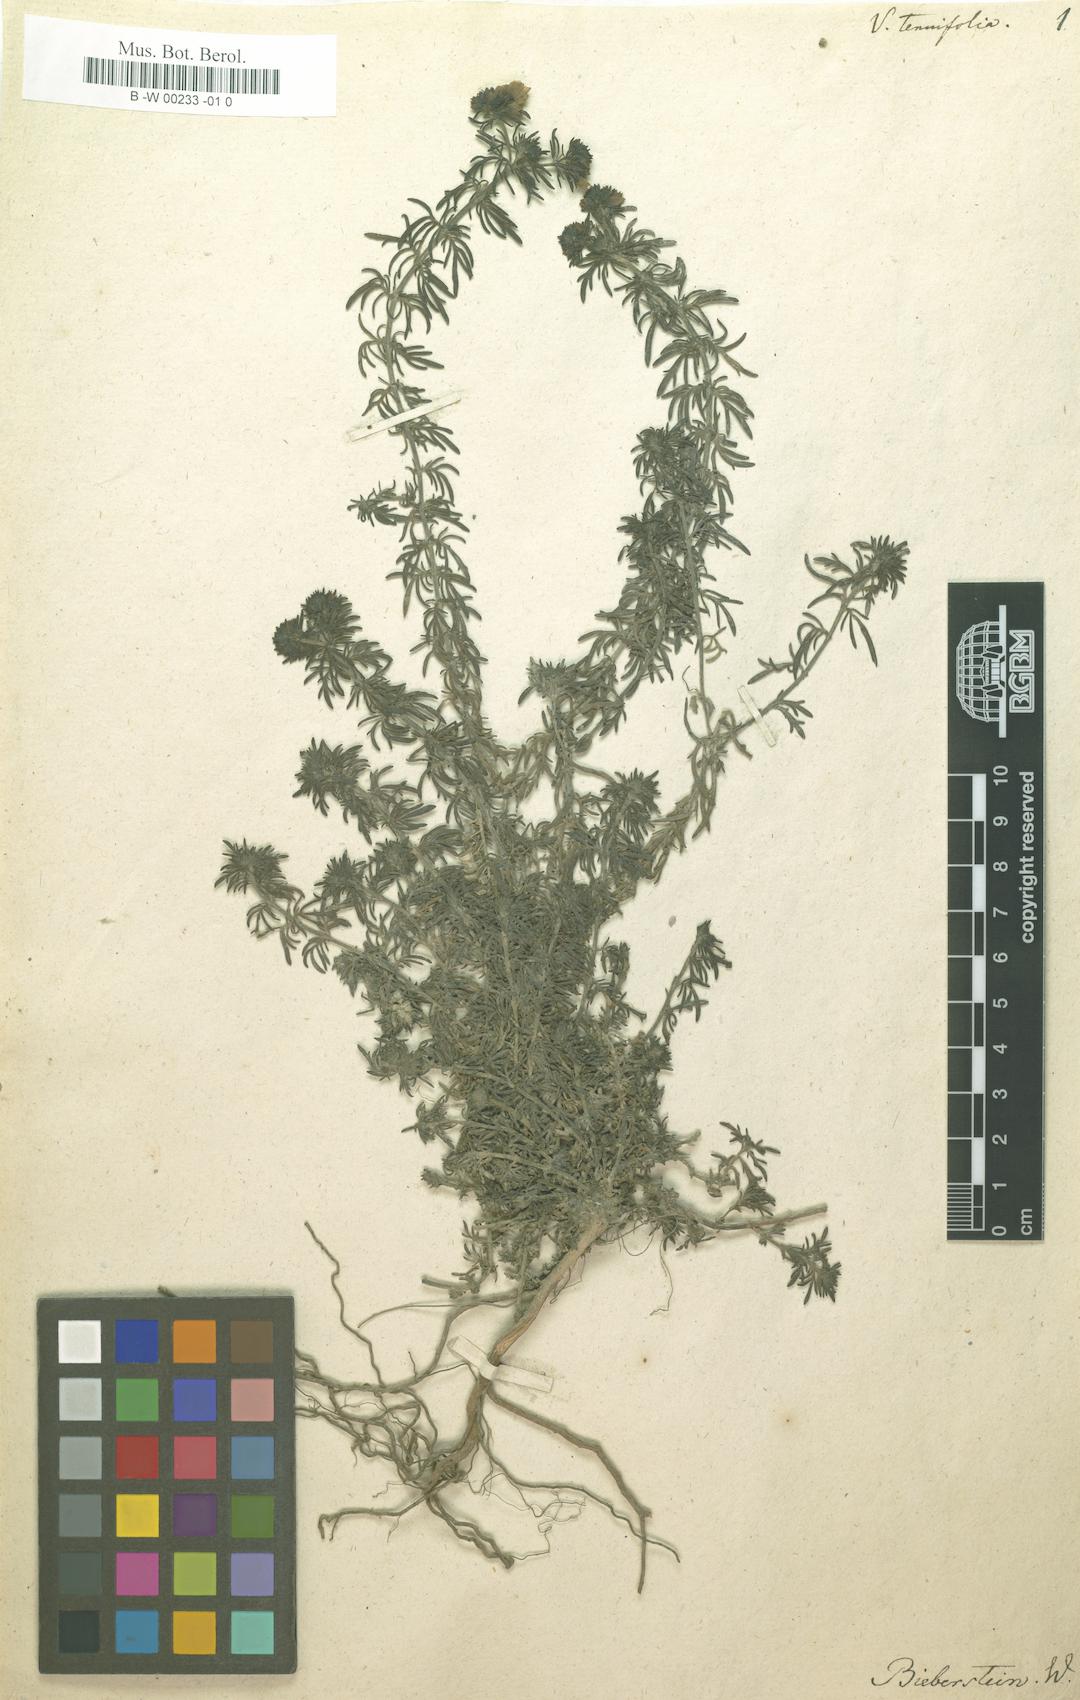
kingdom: Plantae
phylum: Tracheophyta
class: Magnoliopsida
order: Lamiales
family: Plantaginaceae
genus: Veronica
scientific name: Veronica tenuifolia
